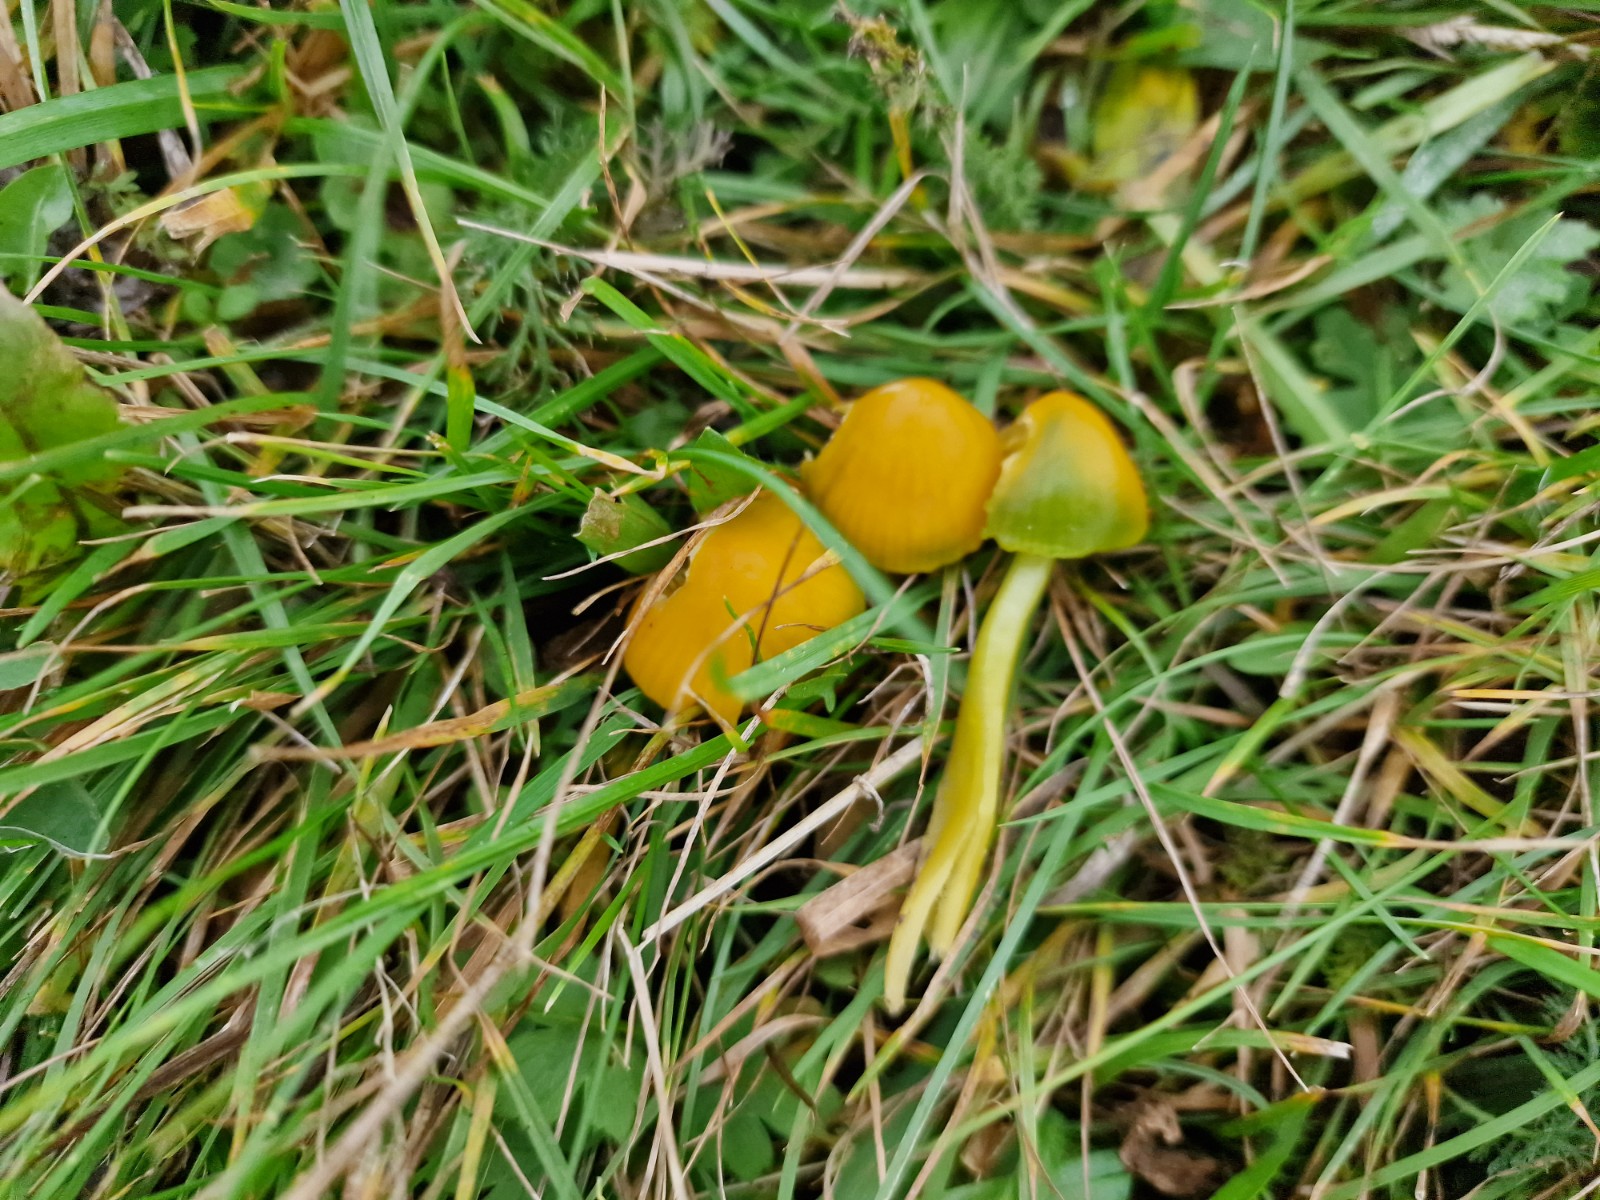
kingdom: Fungi
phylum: Basidiomycota
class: Agaricomycetes
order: Agaricales
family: Hygrophoraceae
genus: Gliophorus
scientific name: Gliophorus psittacinus
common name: papegøje-vokshat
